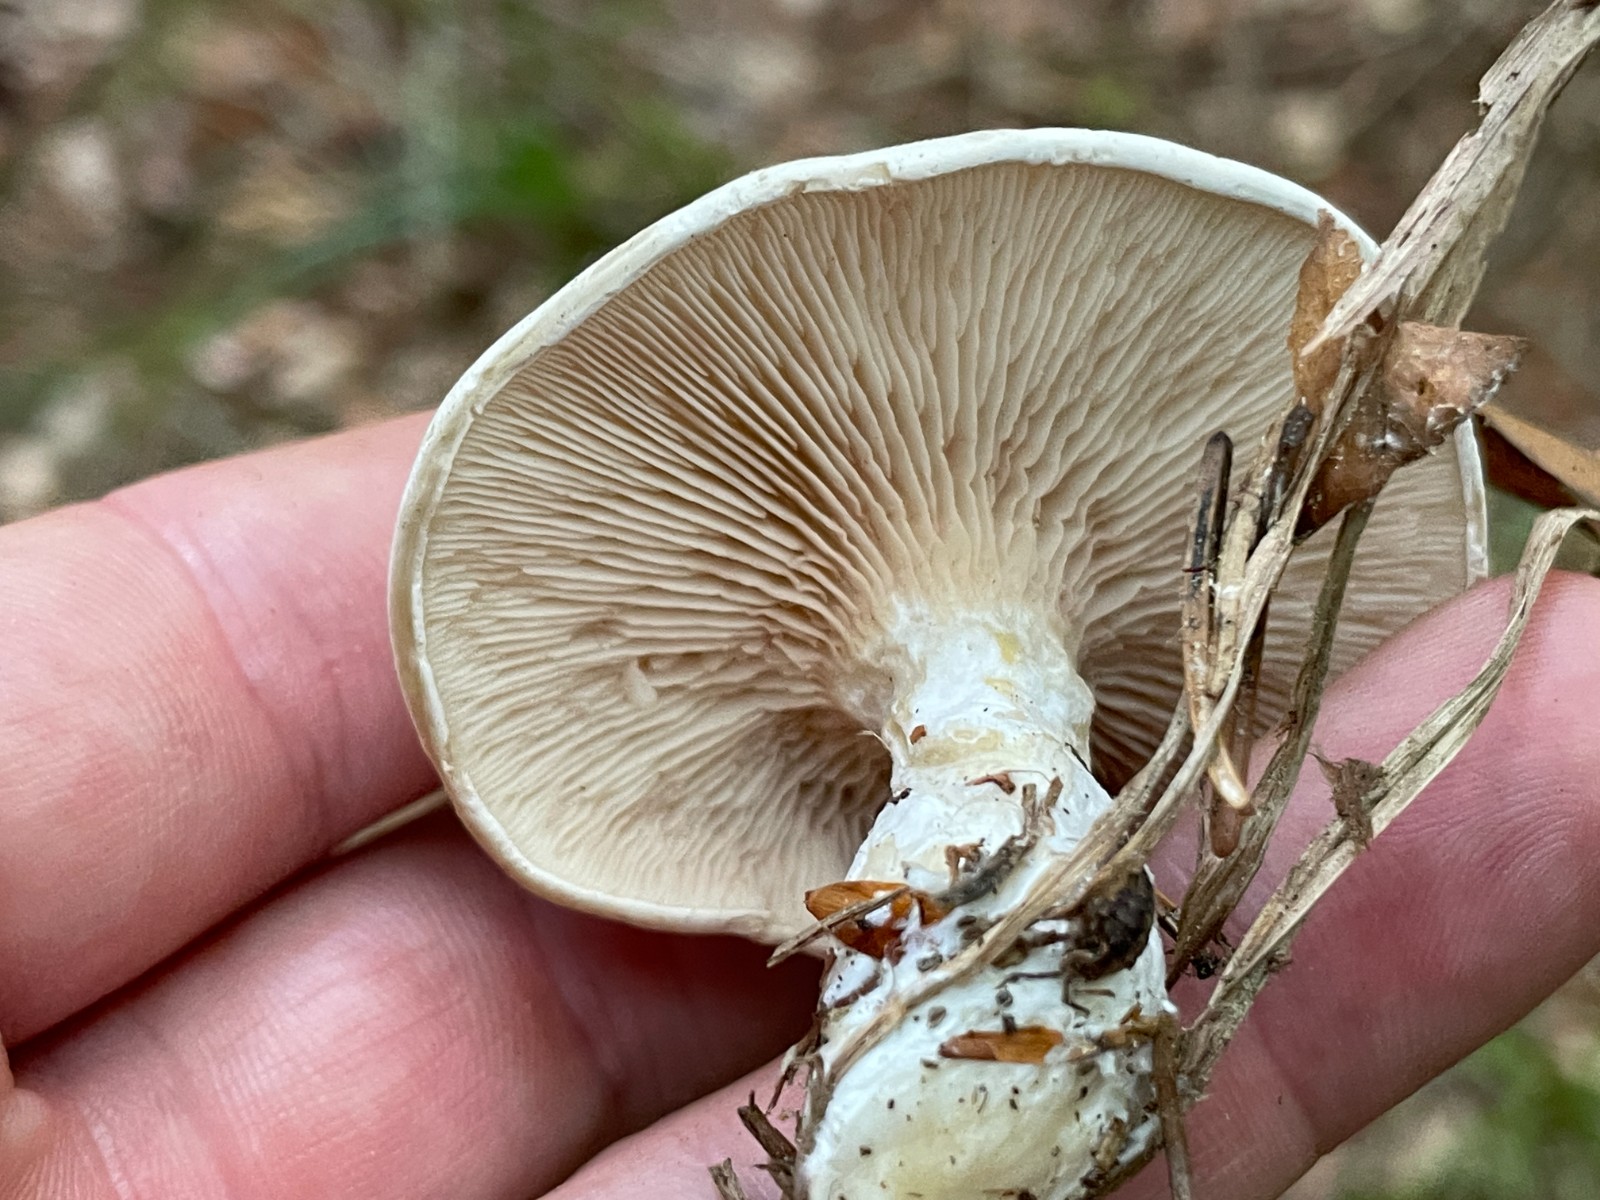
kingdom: Fungi
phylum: Basidiomycota
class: Agaricomycetes
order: Agaricales
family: Entolomataceae
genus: Clitopilus
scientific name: Clitopilus prunulus
